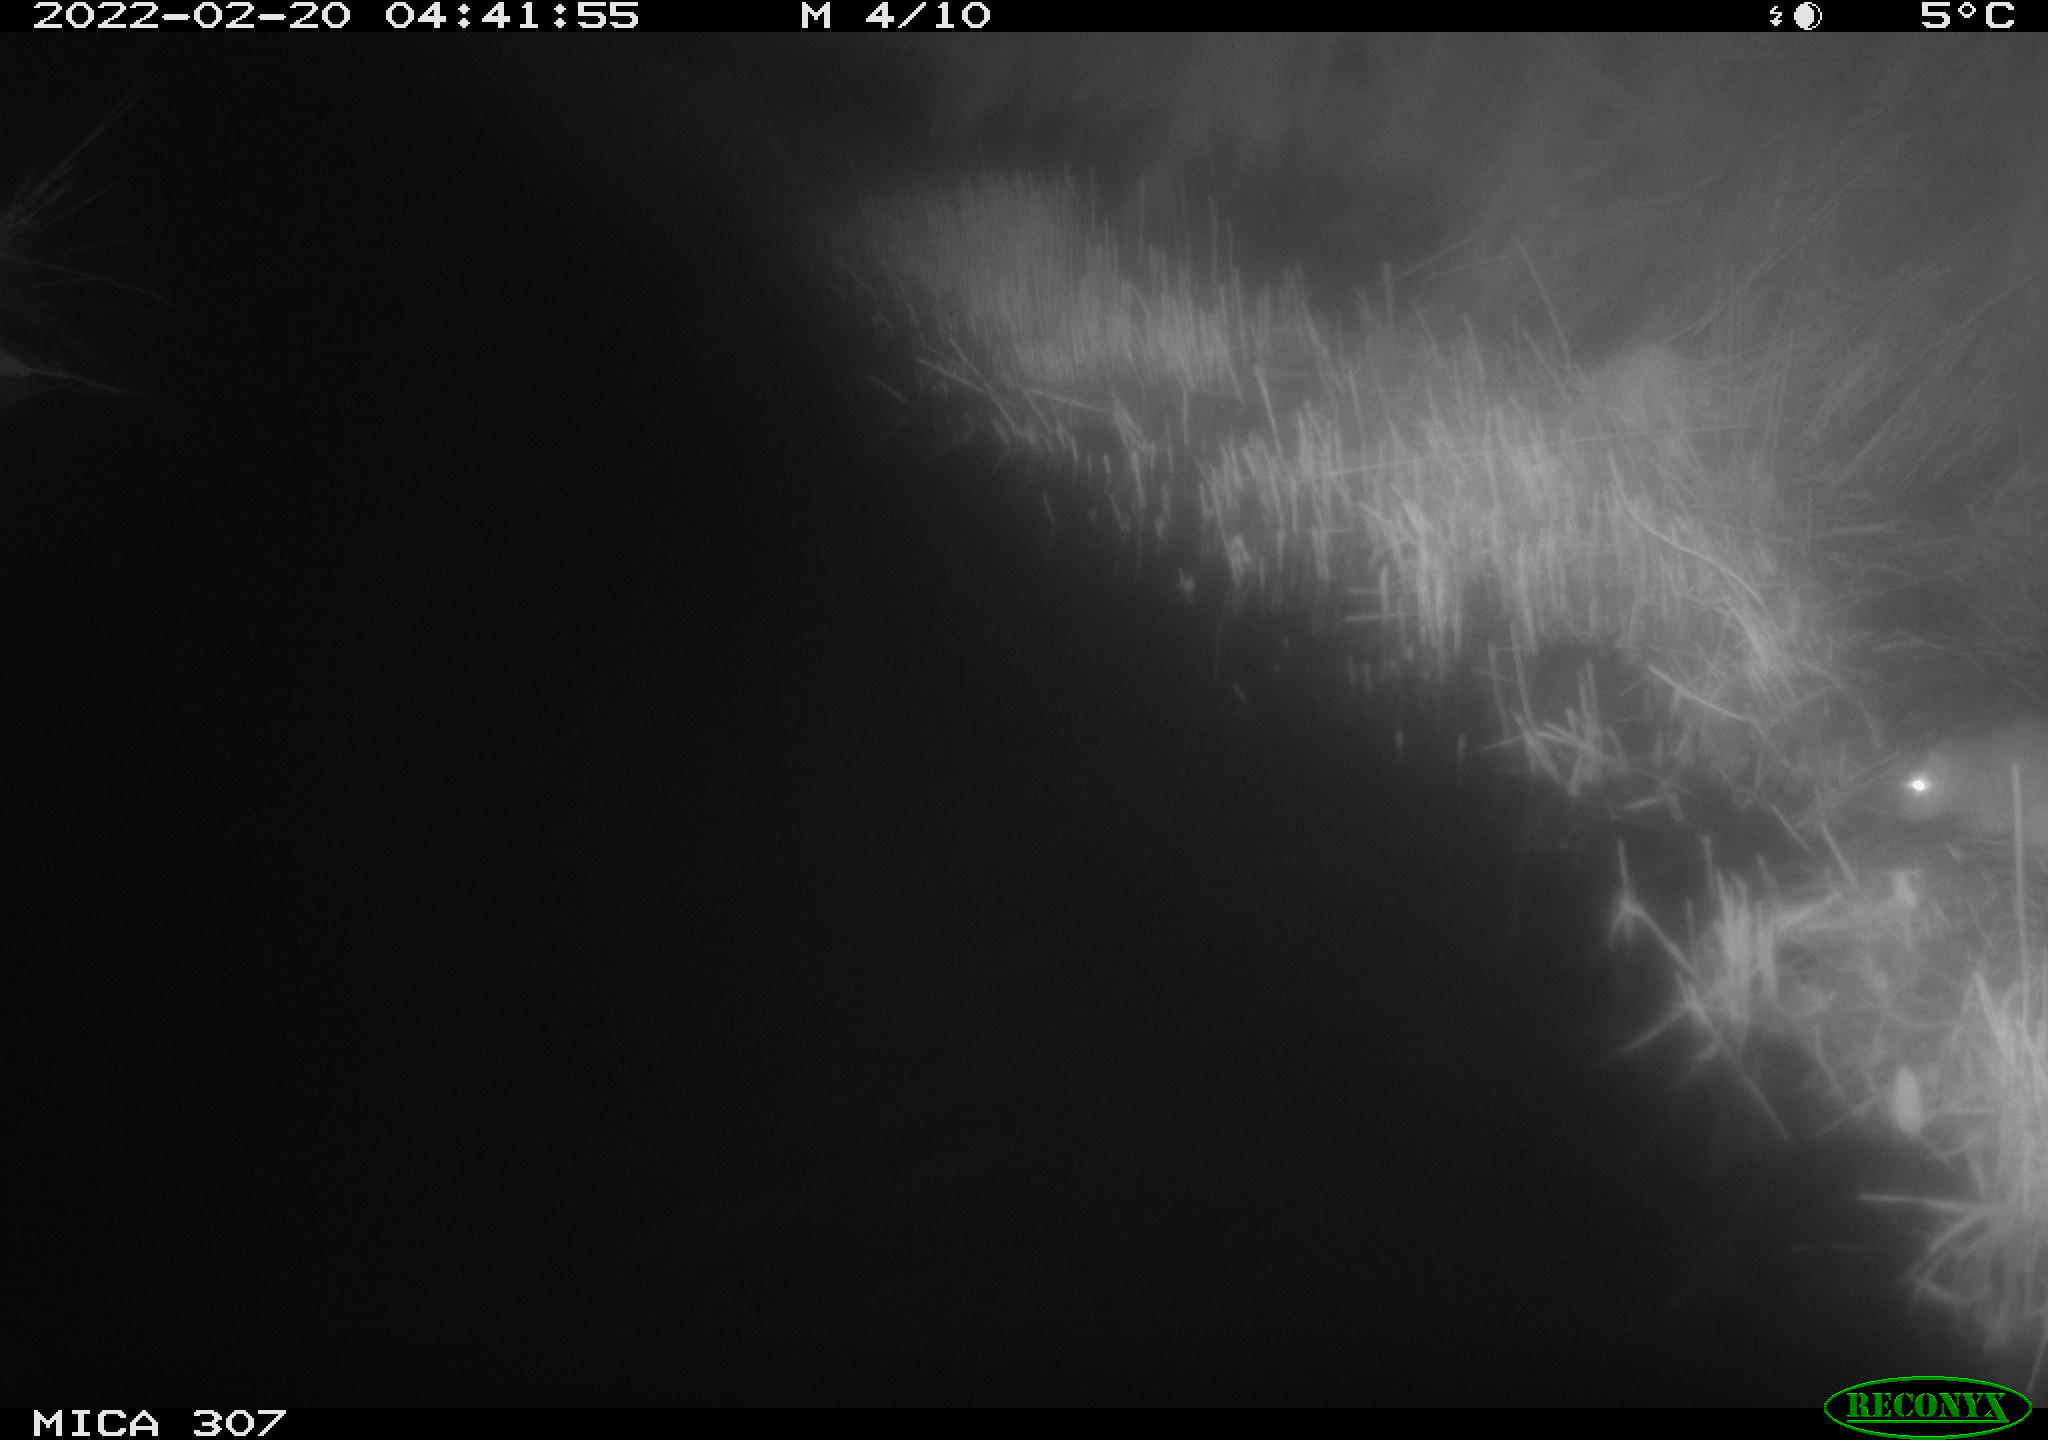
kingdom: Animalia
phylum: Chordata
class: Mammalia
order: Rodentia
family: Muridae
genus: Rattus
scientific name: Rattus norvegicus
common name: Brown rat
